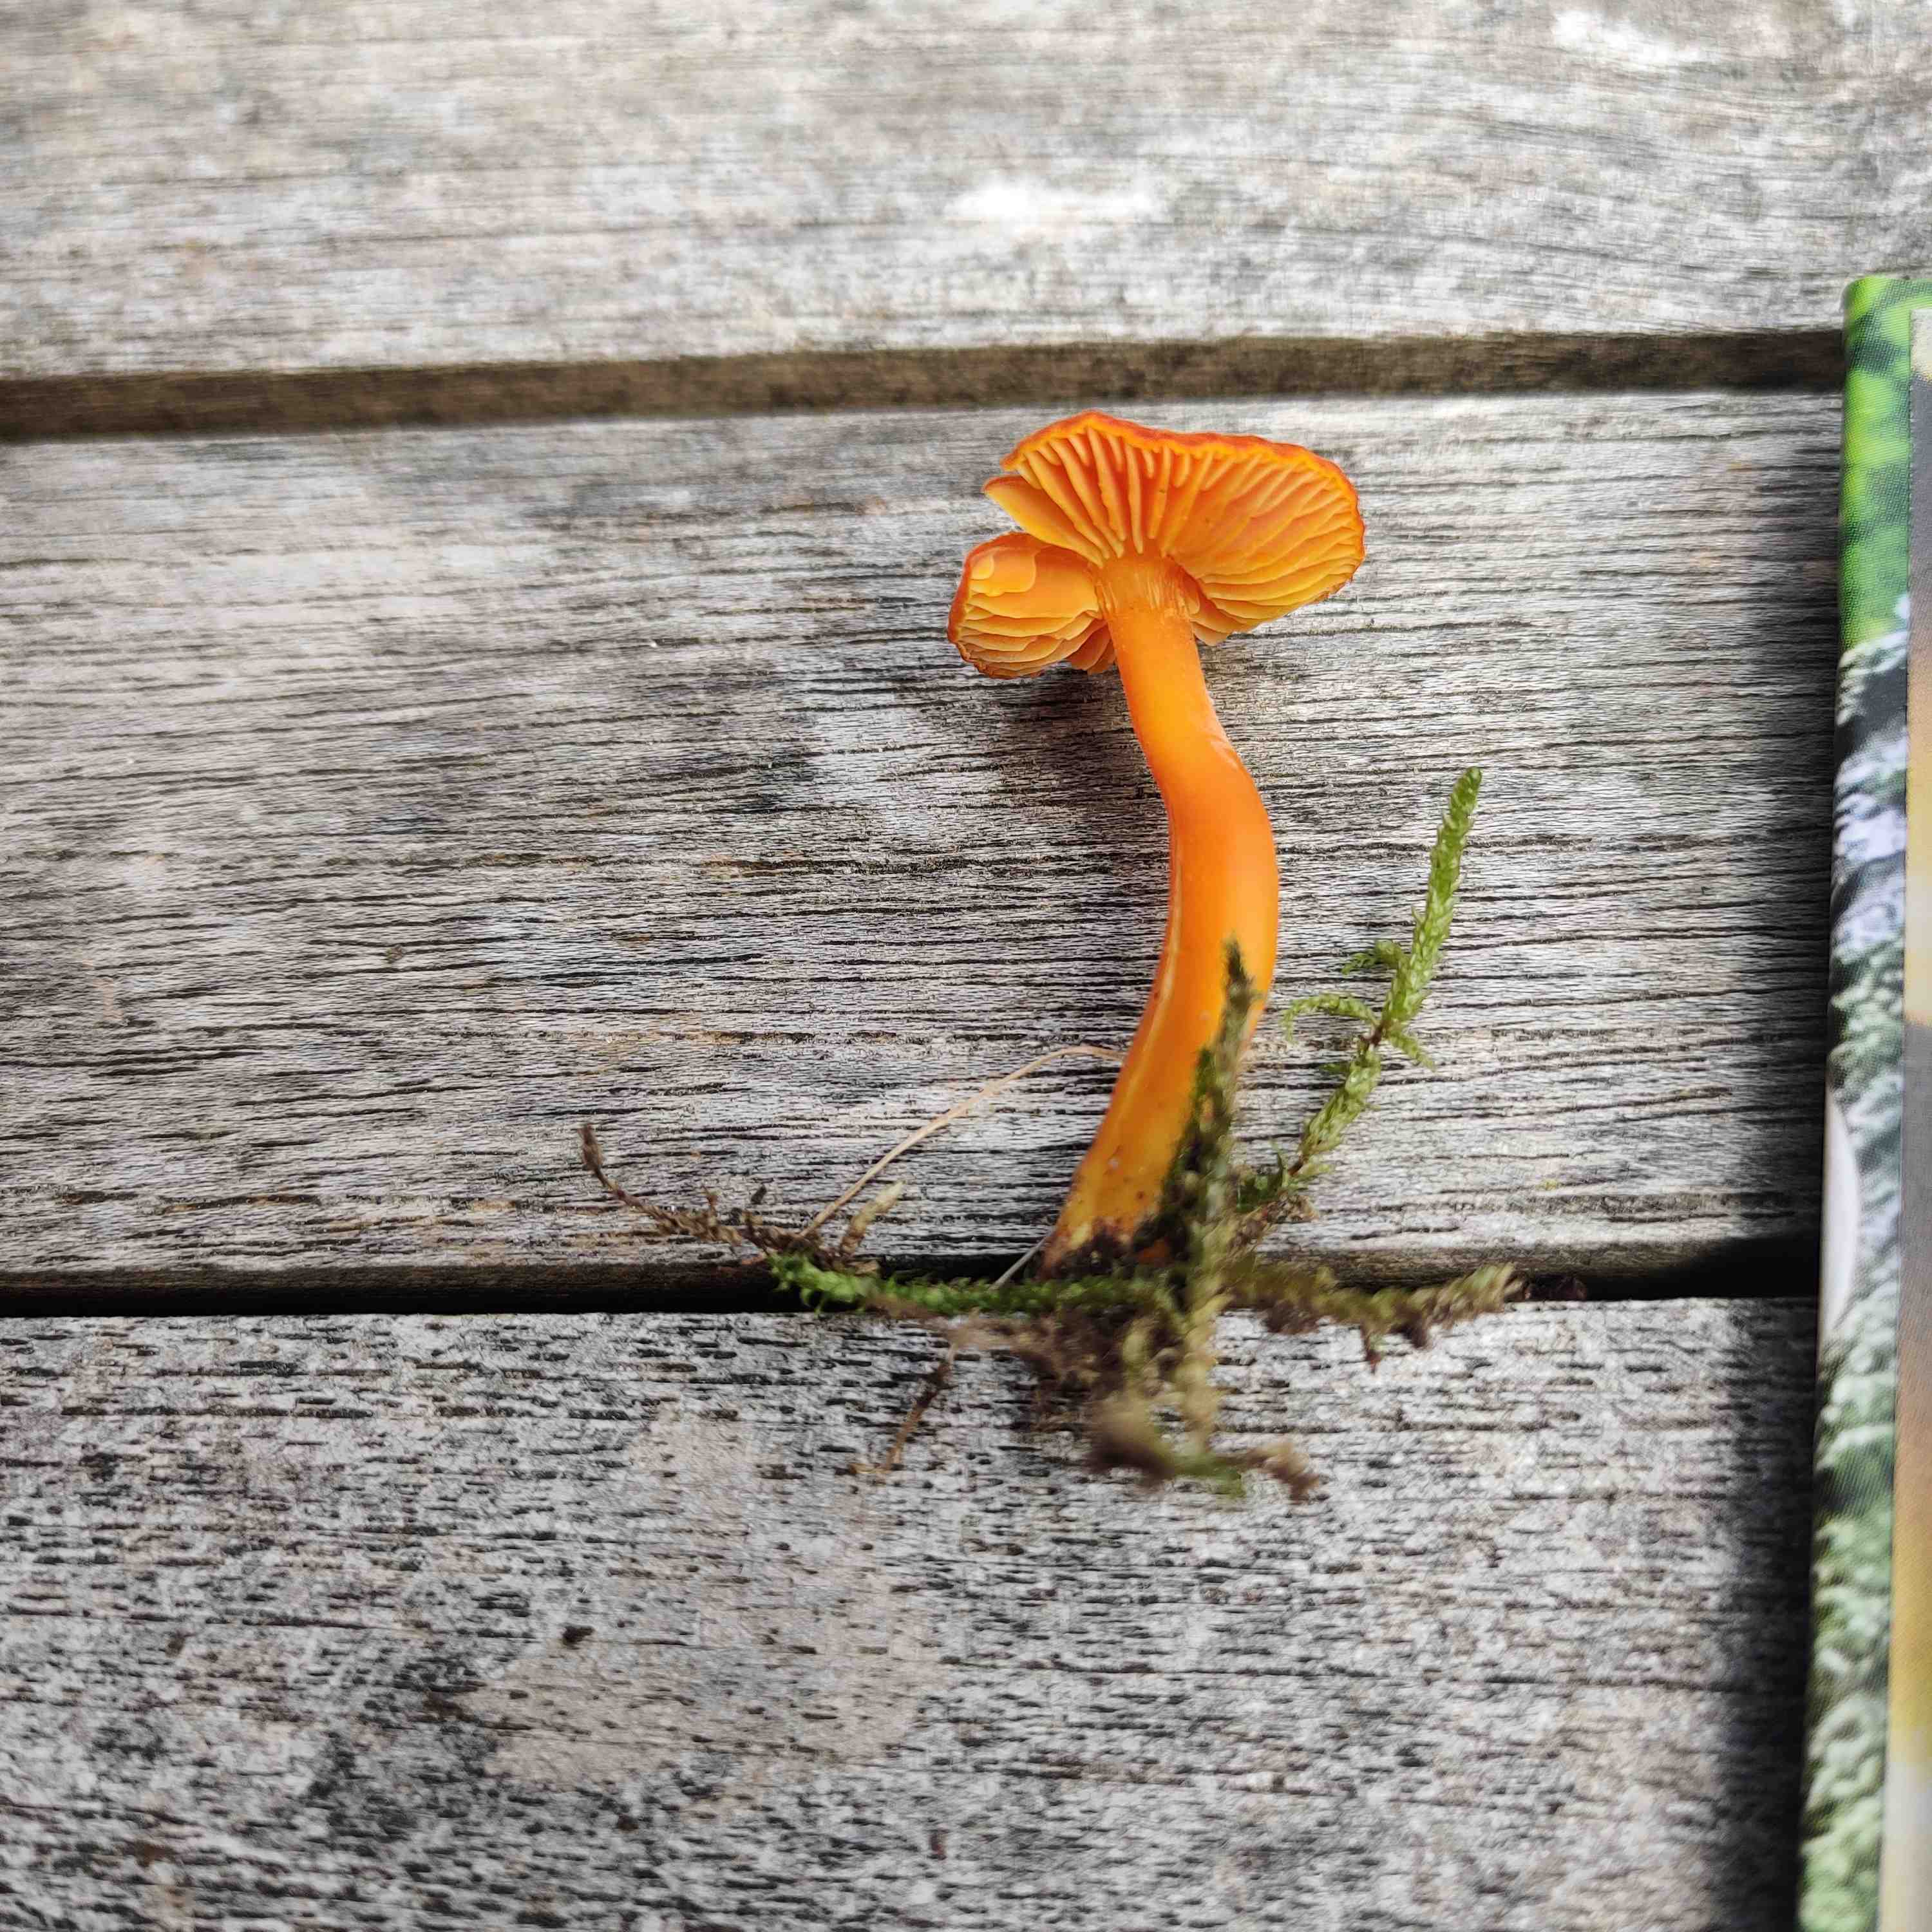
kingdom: Fungi
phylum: Basidiomycota
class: Agaricomycetes
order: Agaricales
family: Hygrophoraceae
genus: Hygrocybe
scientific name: Hygrocybe miniata
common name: mønje-vokshat
